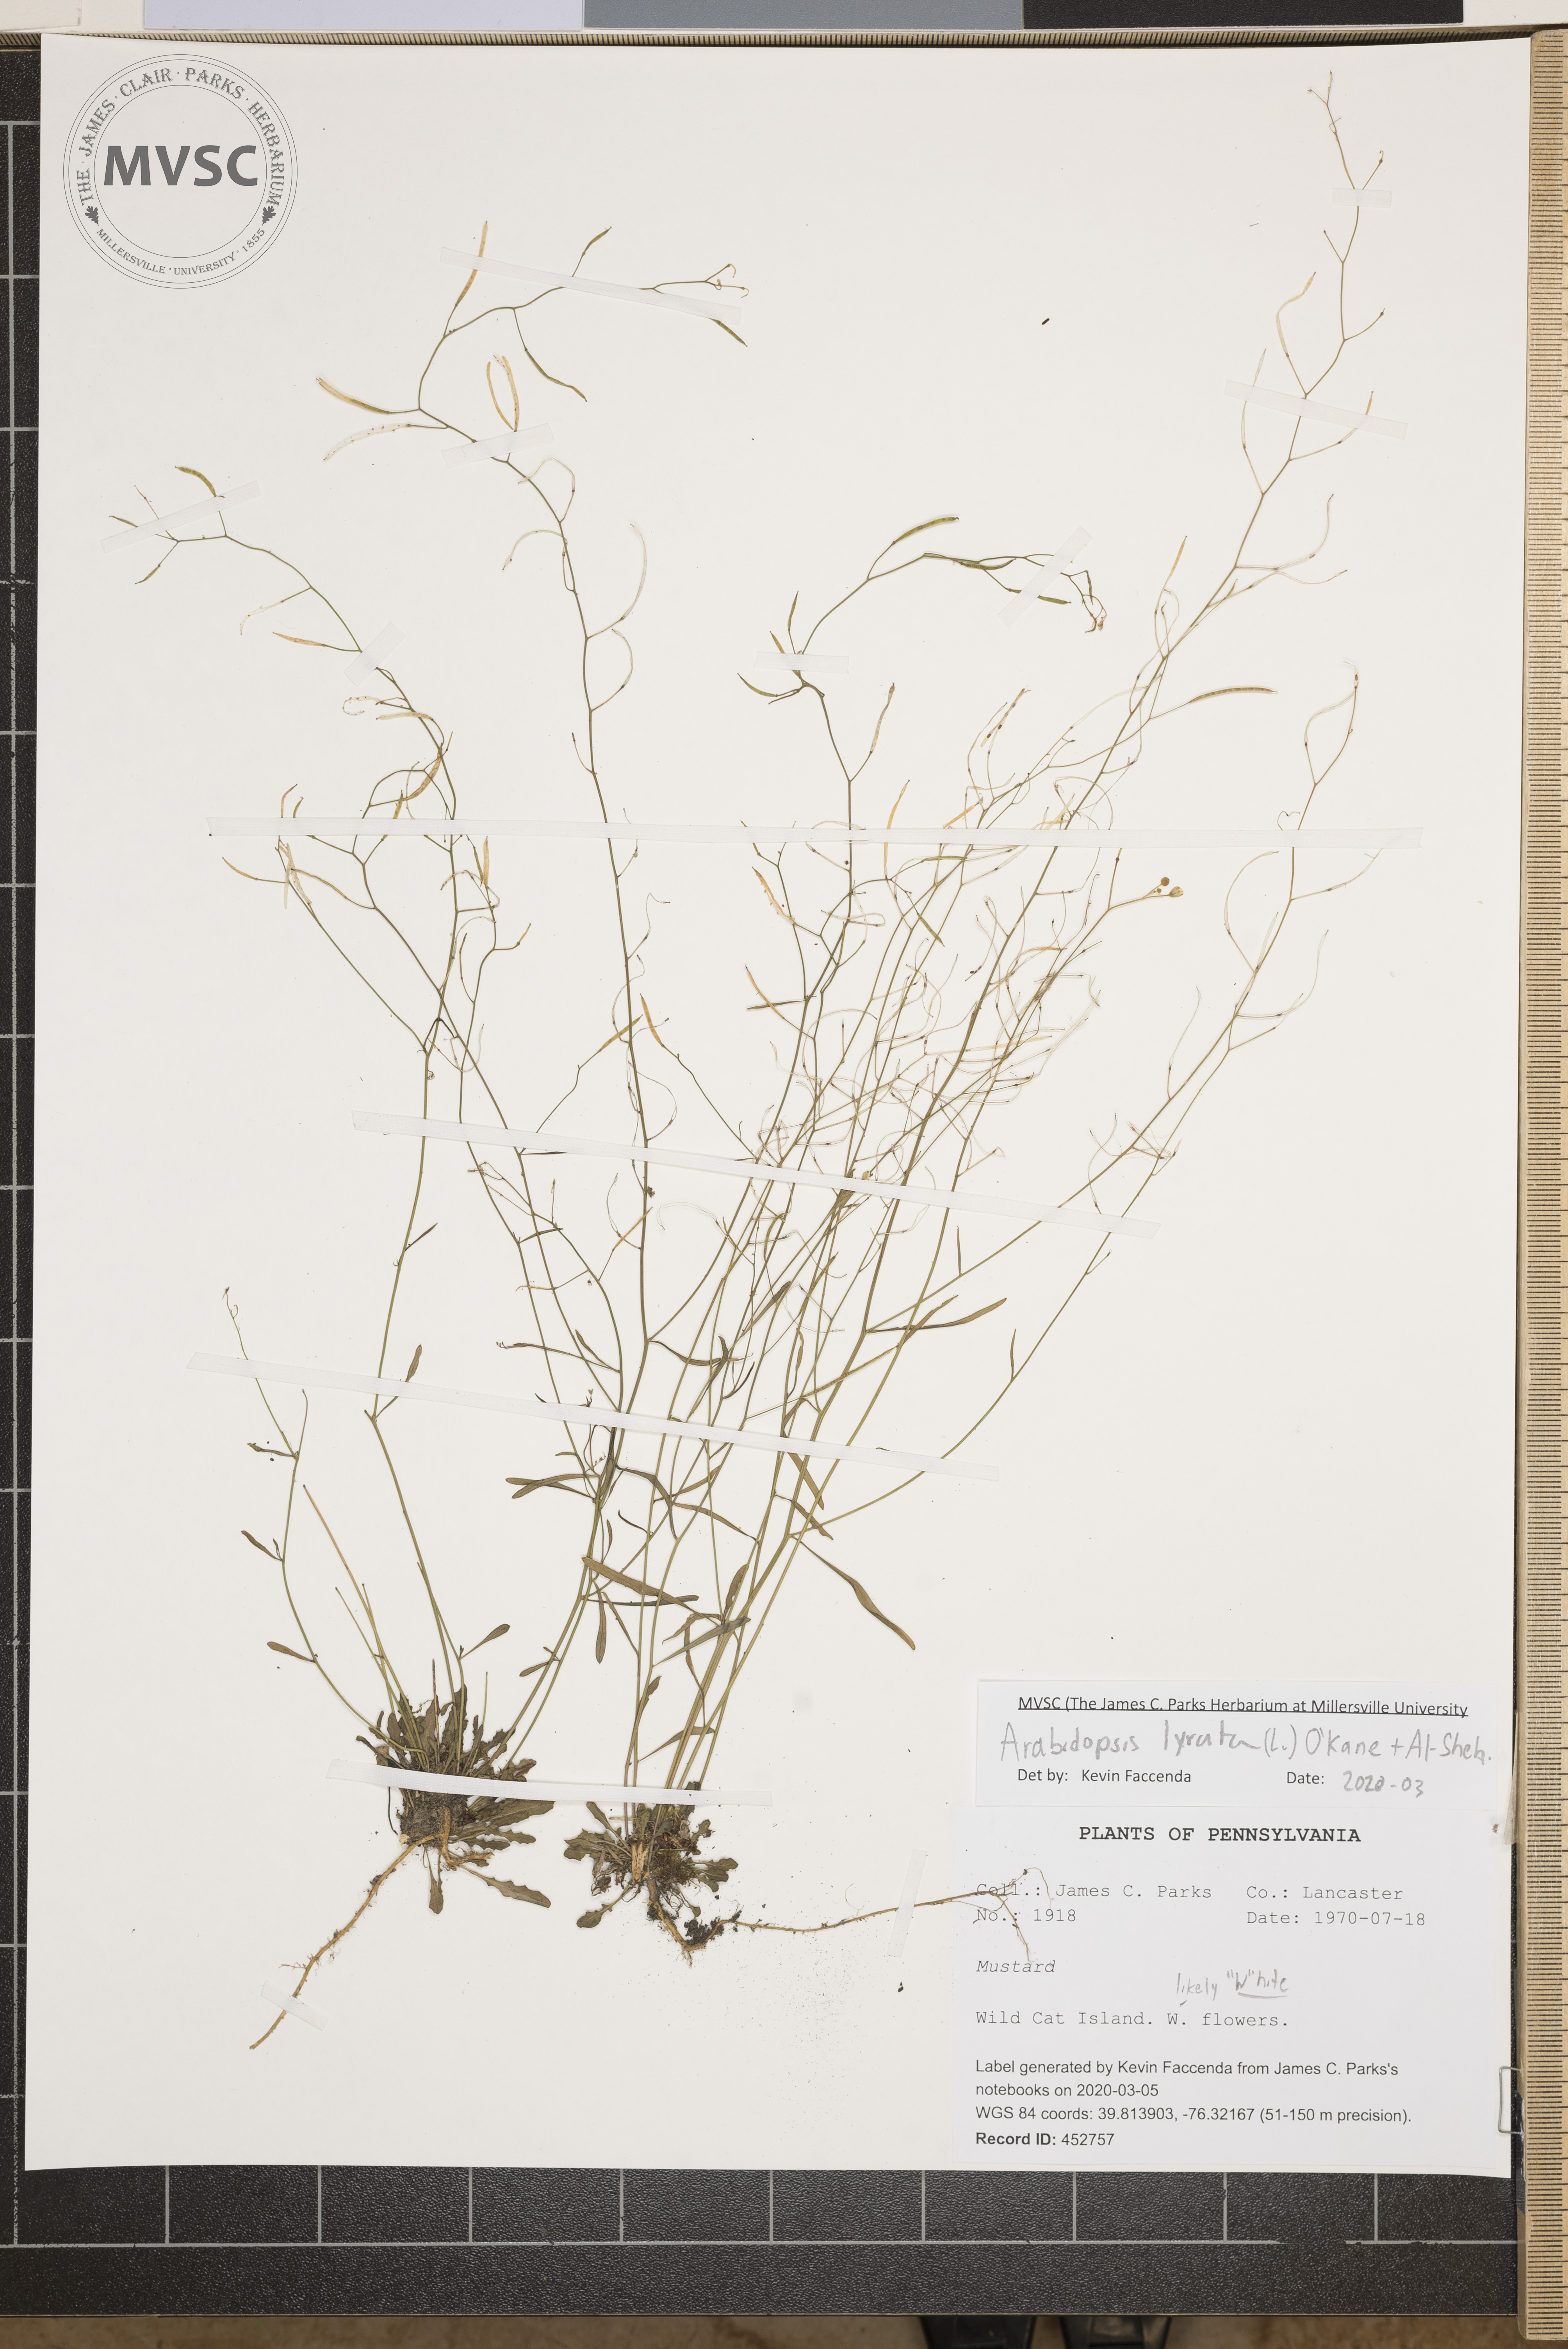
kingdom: Plantae
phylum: Tracheophyta
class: Magnoliopsida
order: Brassicales
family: Brassicaceae
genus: Arabidopsis
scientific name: Arabidopsis lyrata
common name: Lyrate rockcress
